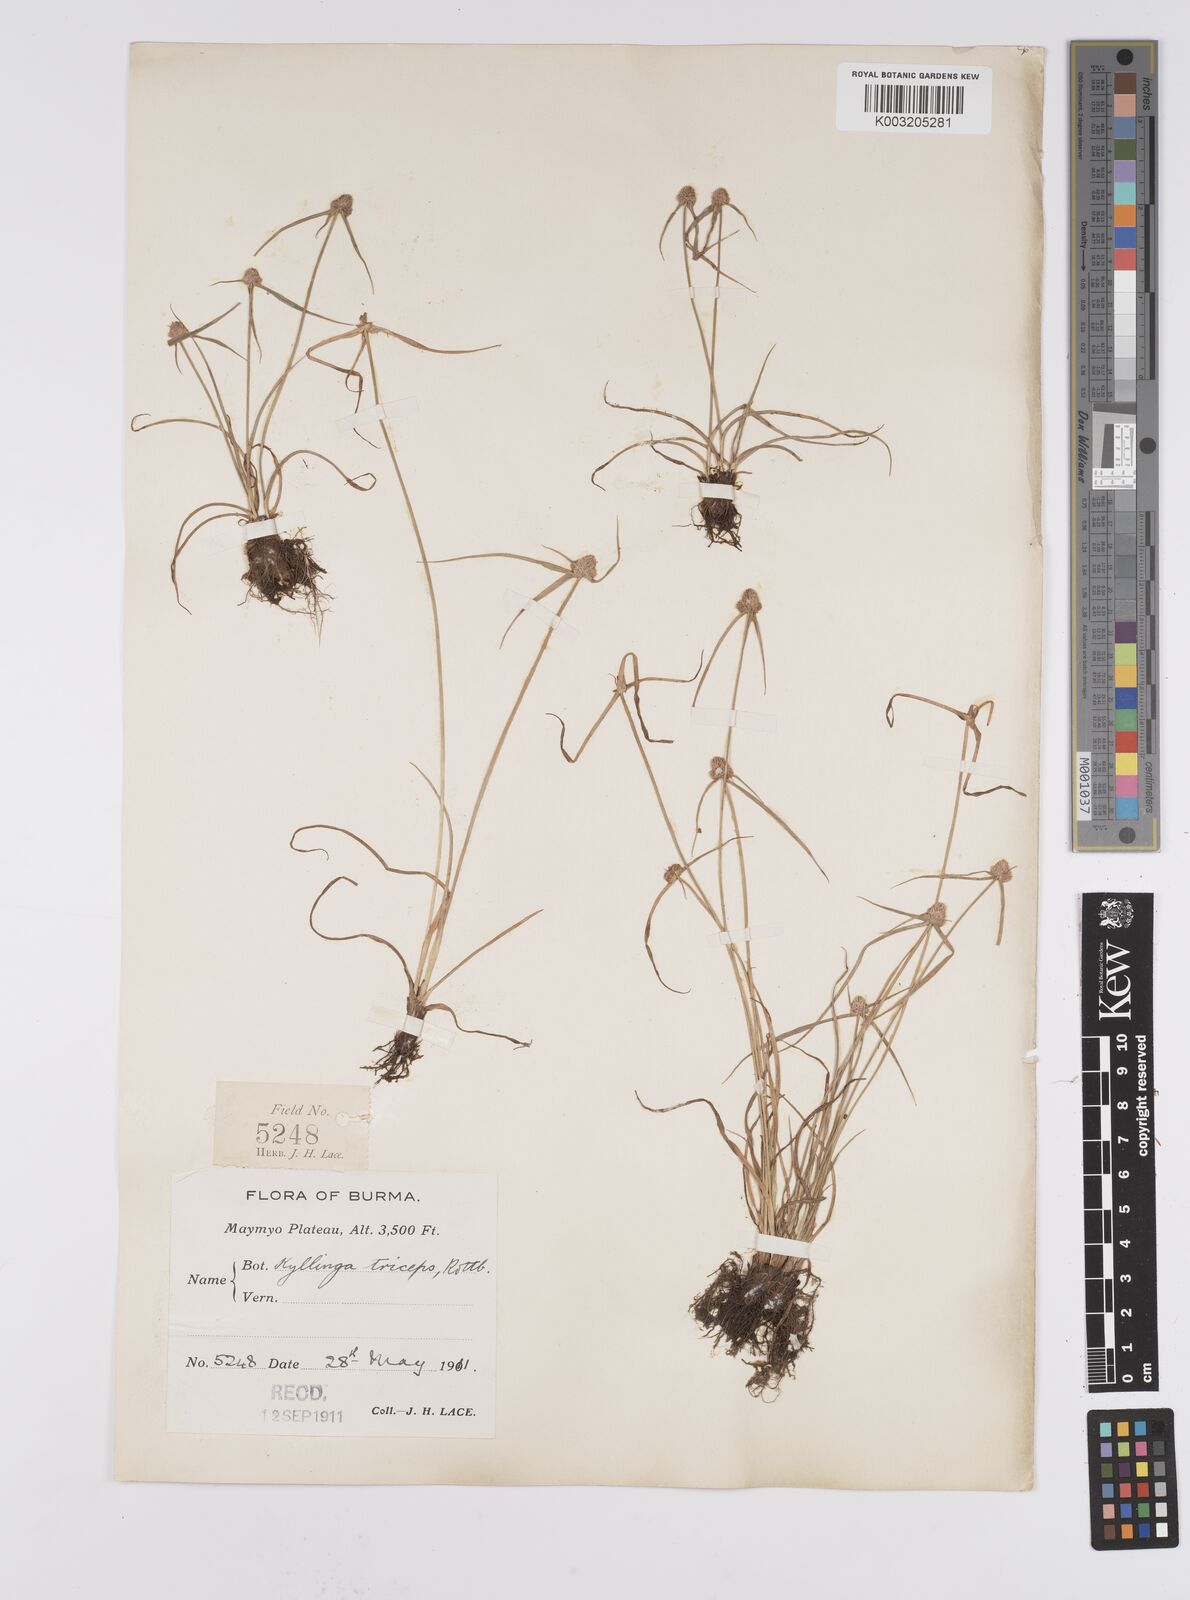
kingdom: Plantae
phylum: Tracheophyta
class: Liliopsida
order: Poales
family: Cyperaceae
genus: Cyperus
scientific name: Cyperus
